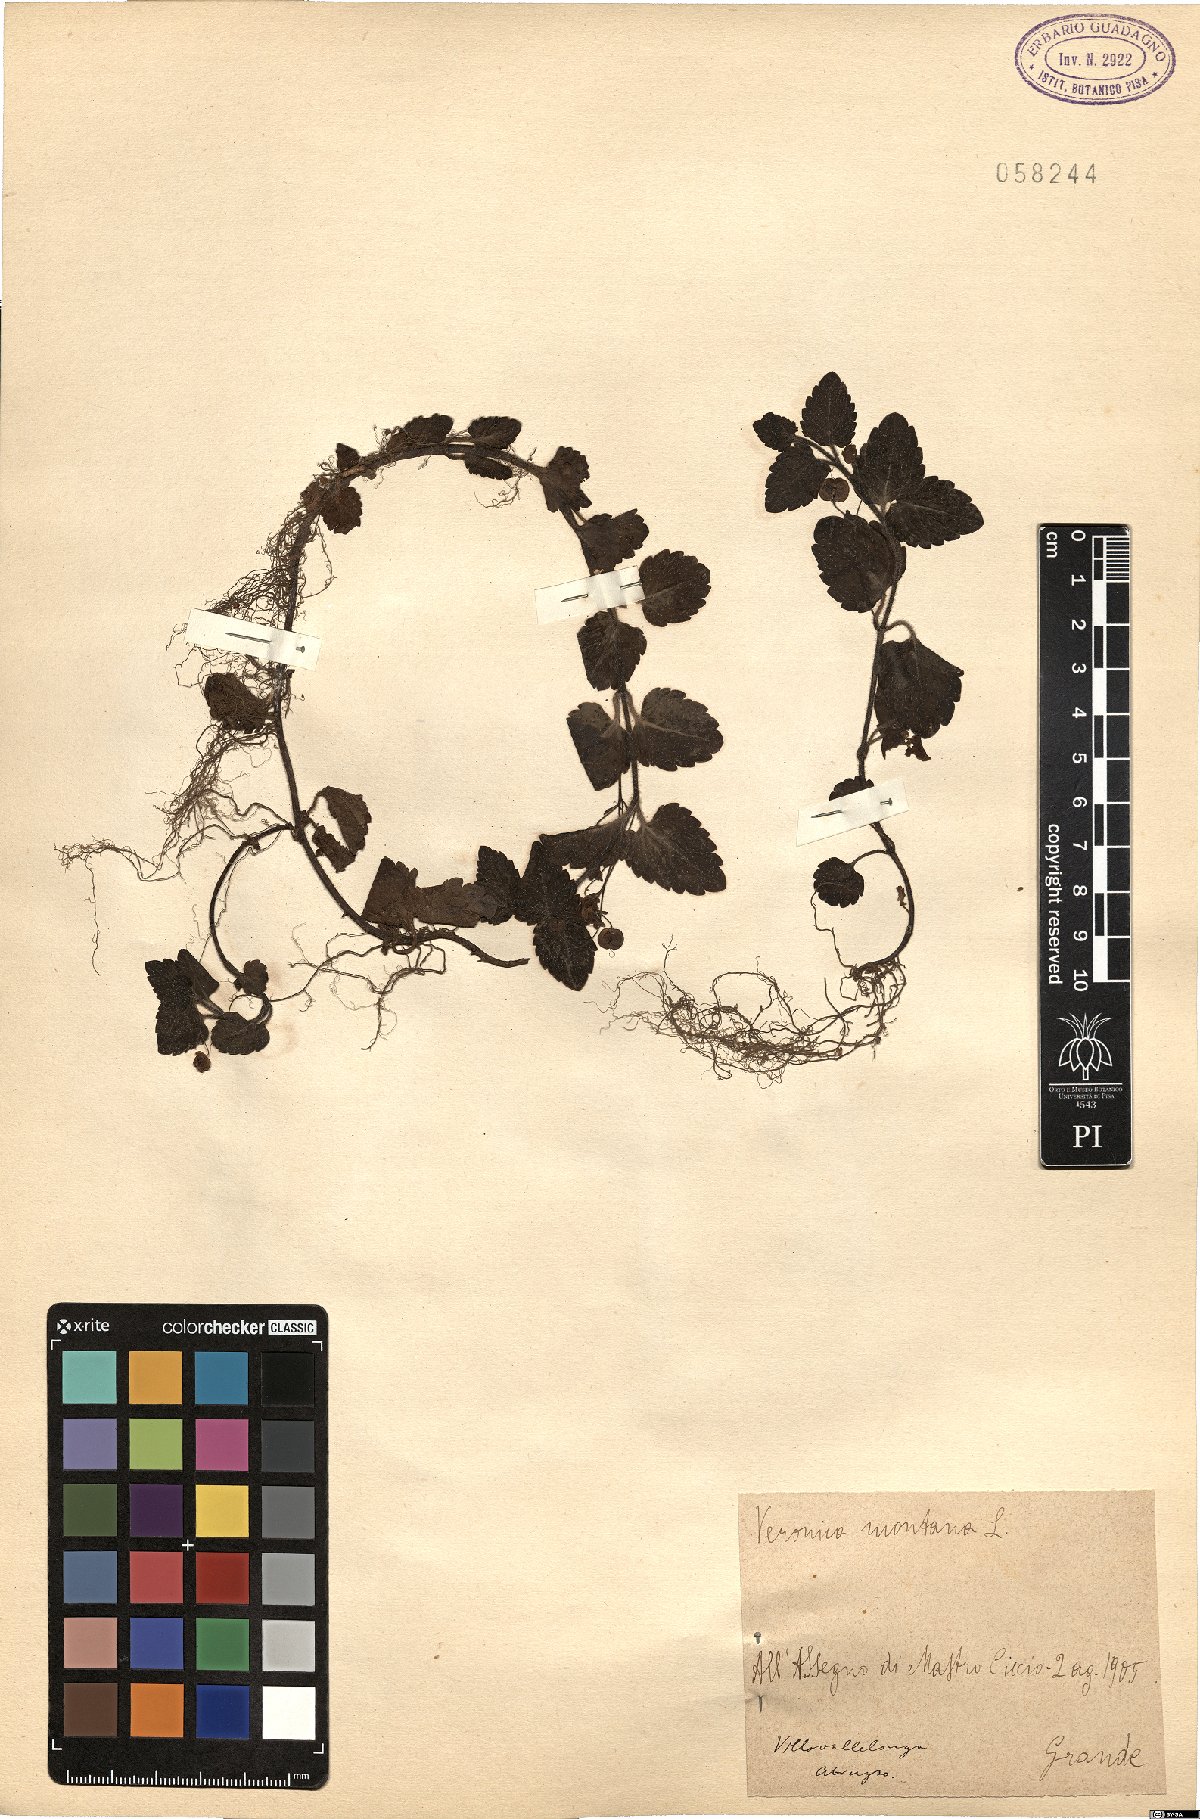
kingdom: Plantae
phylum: Tracheophyta
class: Magnoliopsida
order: Lamiales
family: Plantaginaceae
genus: Veronica
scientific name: Veronica montana
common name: Wood speedwell
